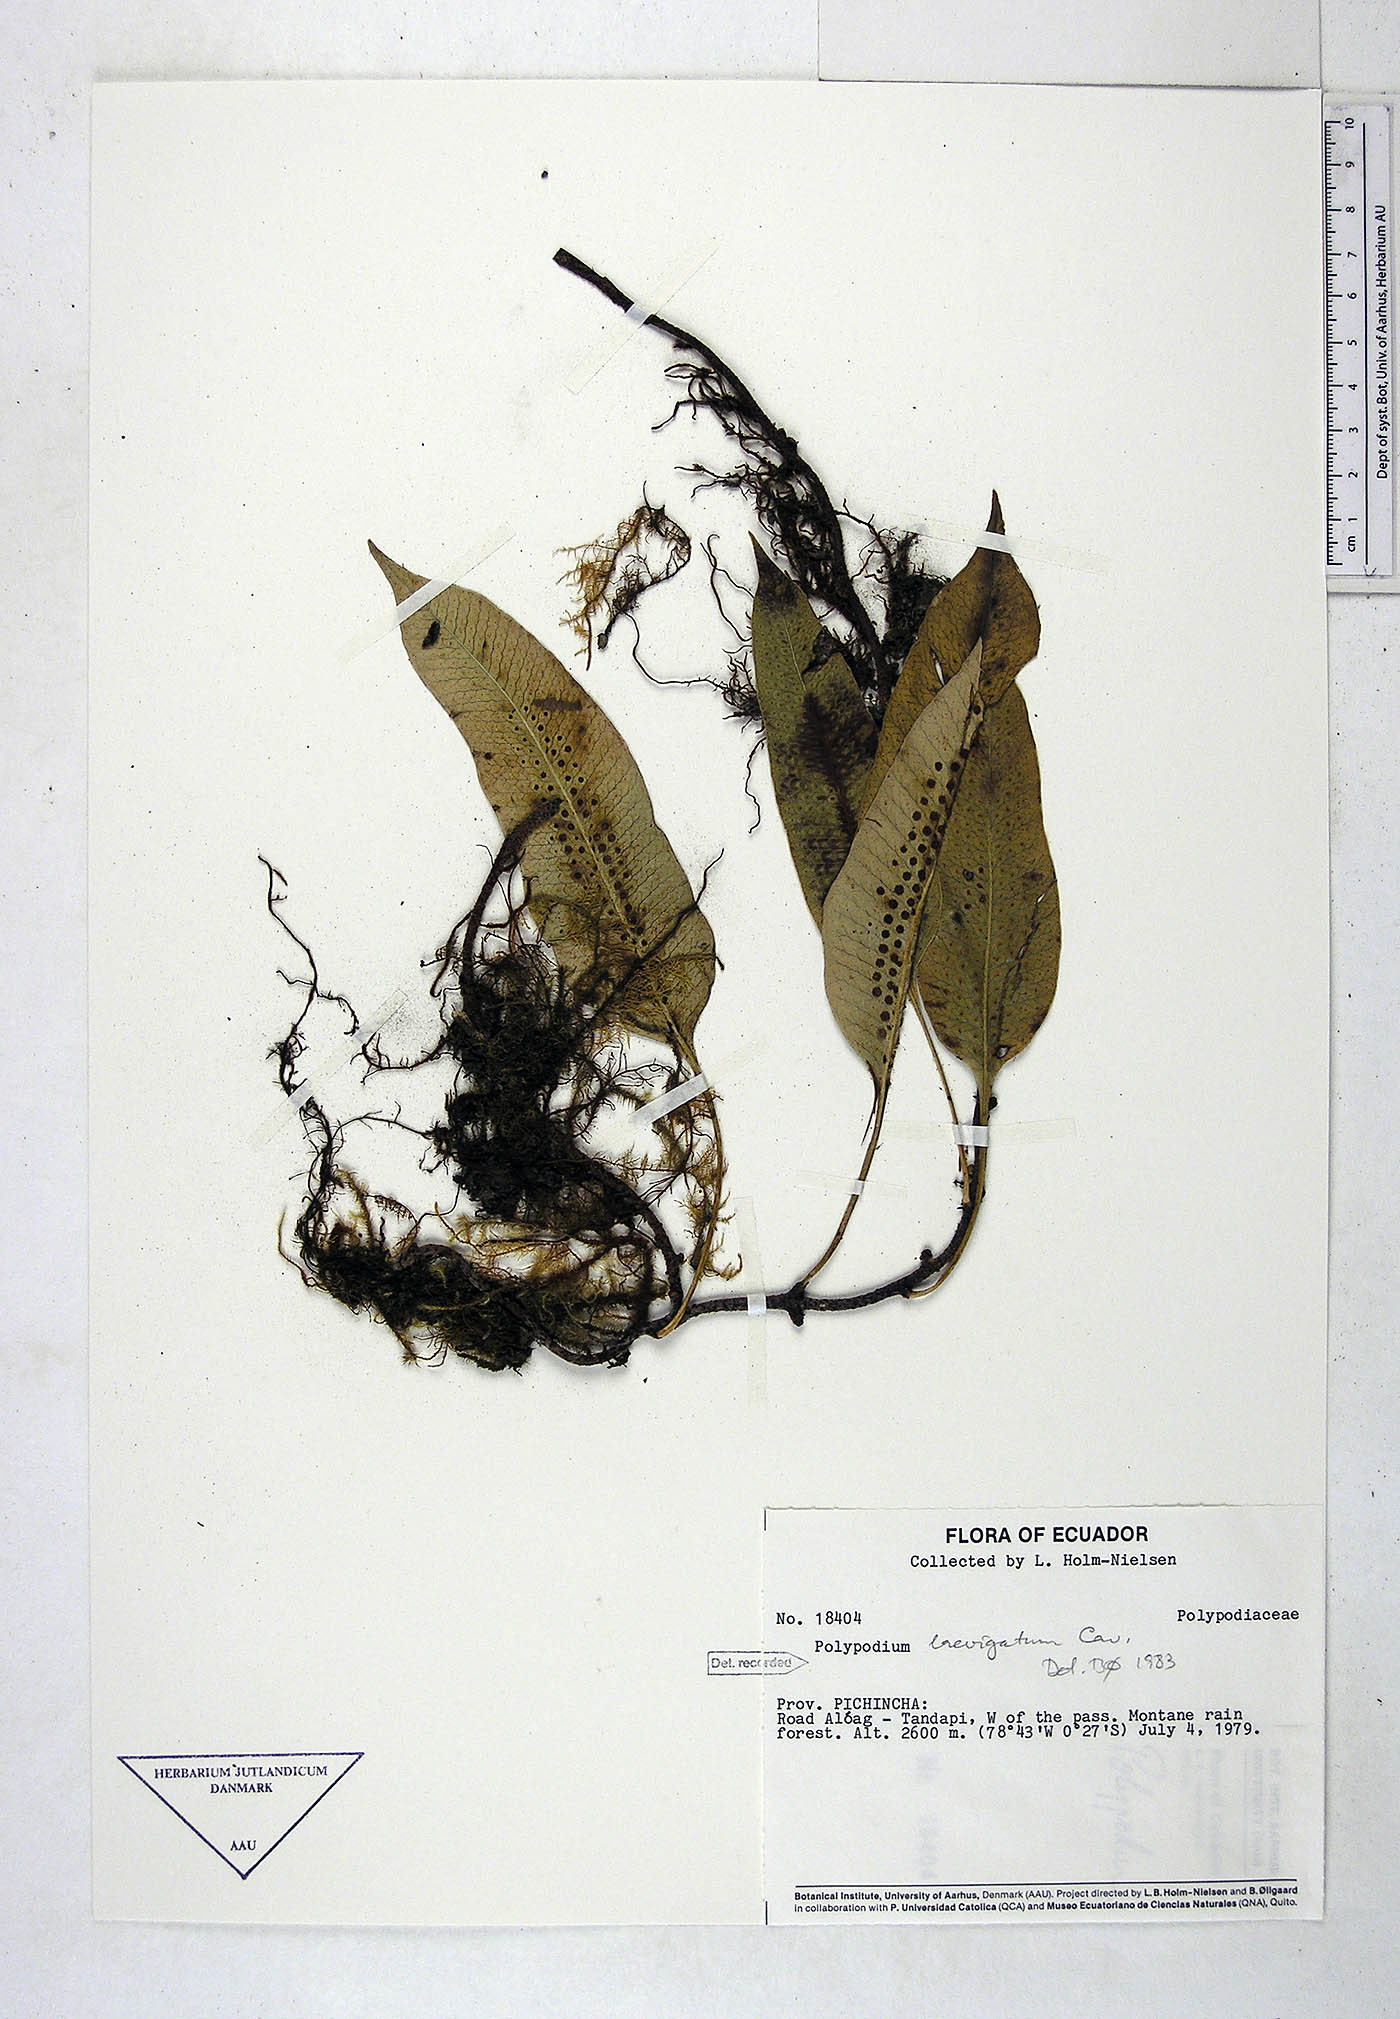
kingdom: Plantae
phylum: Tracheophyta
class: Polypodiopsida
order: Polypodiales
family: Polypodiaceae
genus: Serpocaulon
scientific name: Serpocaulon laevigatum
